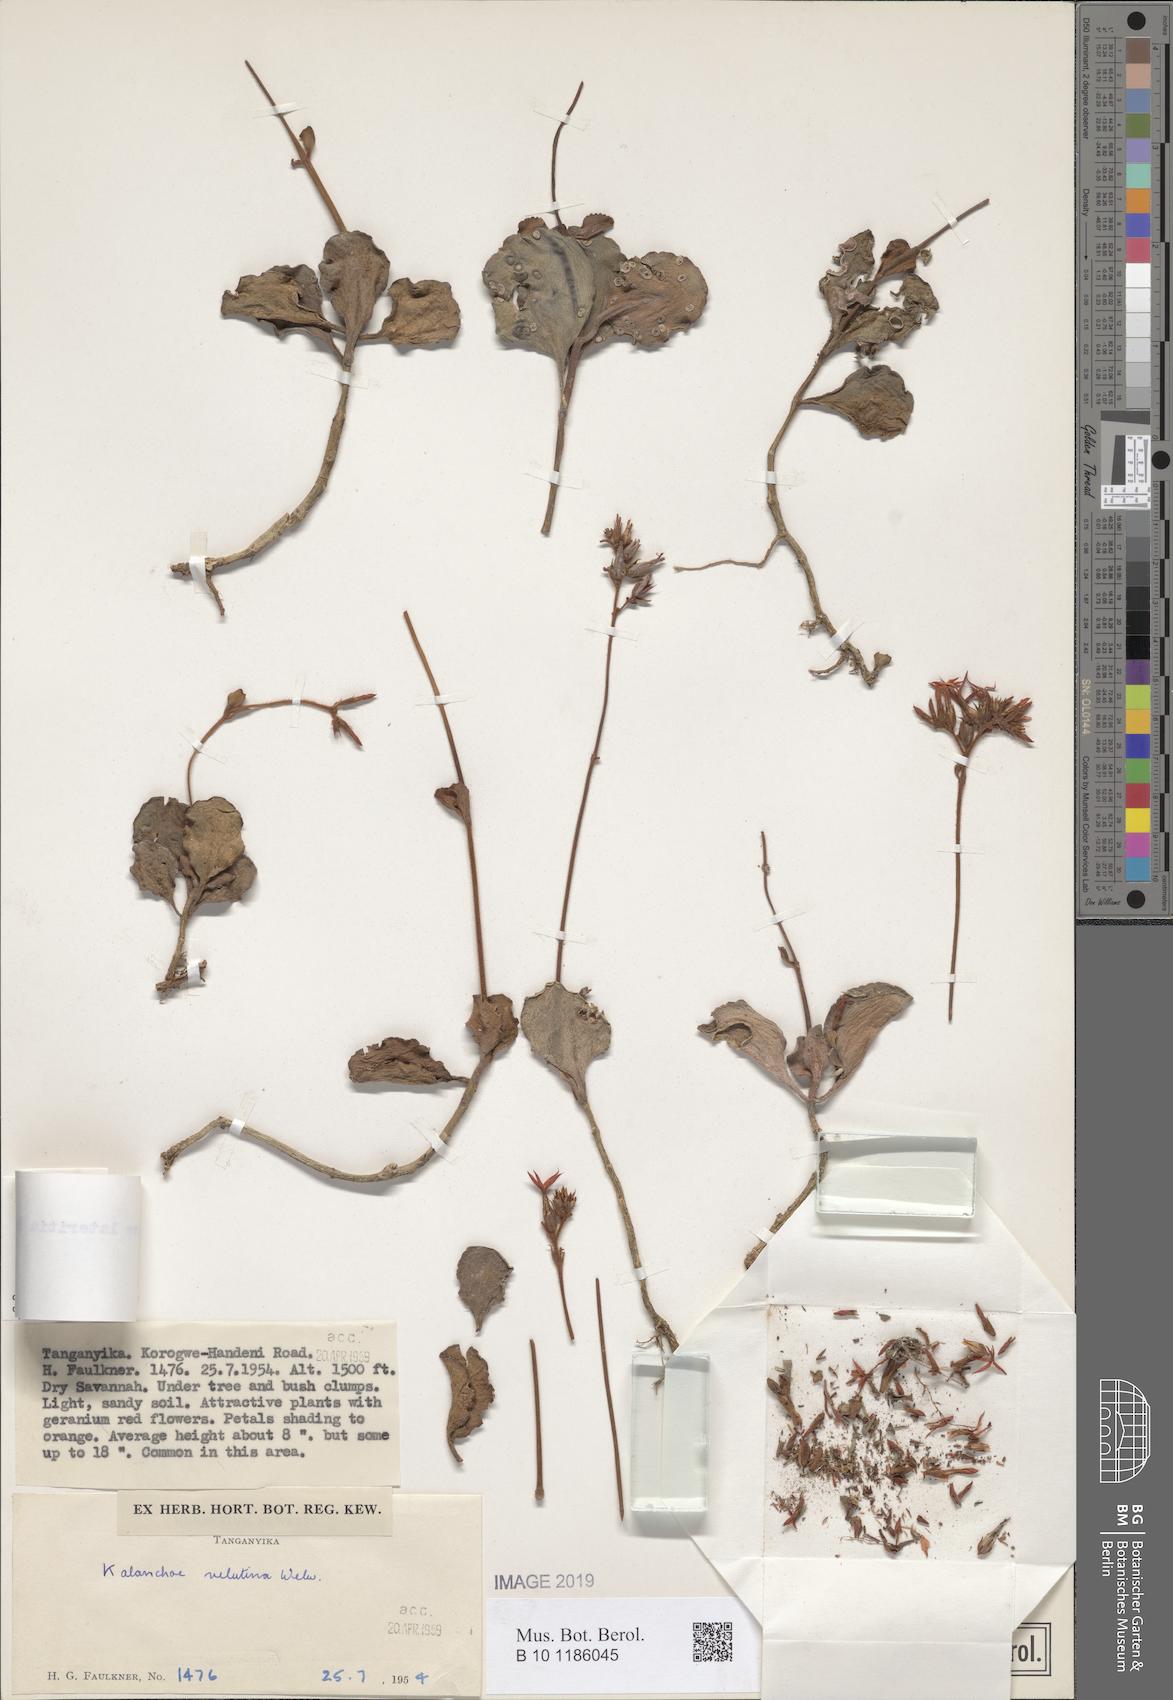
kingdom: Plantae
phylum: Tracheophyta
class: Magnoliopsida
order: Saxifragales
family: Crassulaceae
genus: Kalanchoe
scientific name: Kalanchoe lateritia
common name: Kalanchoe
